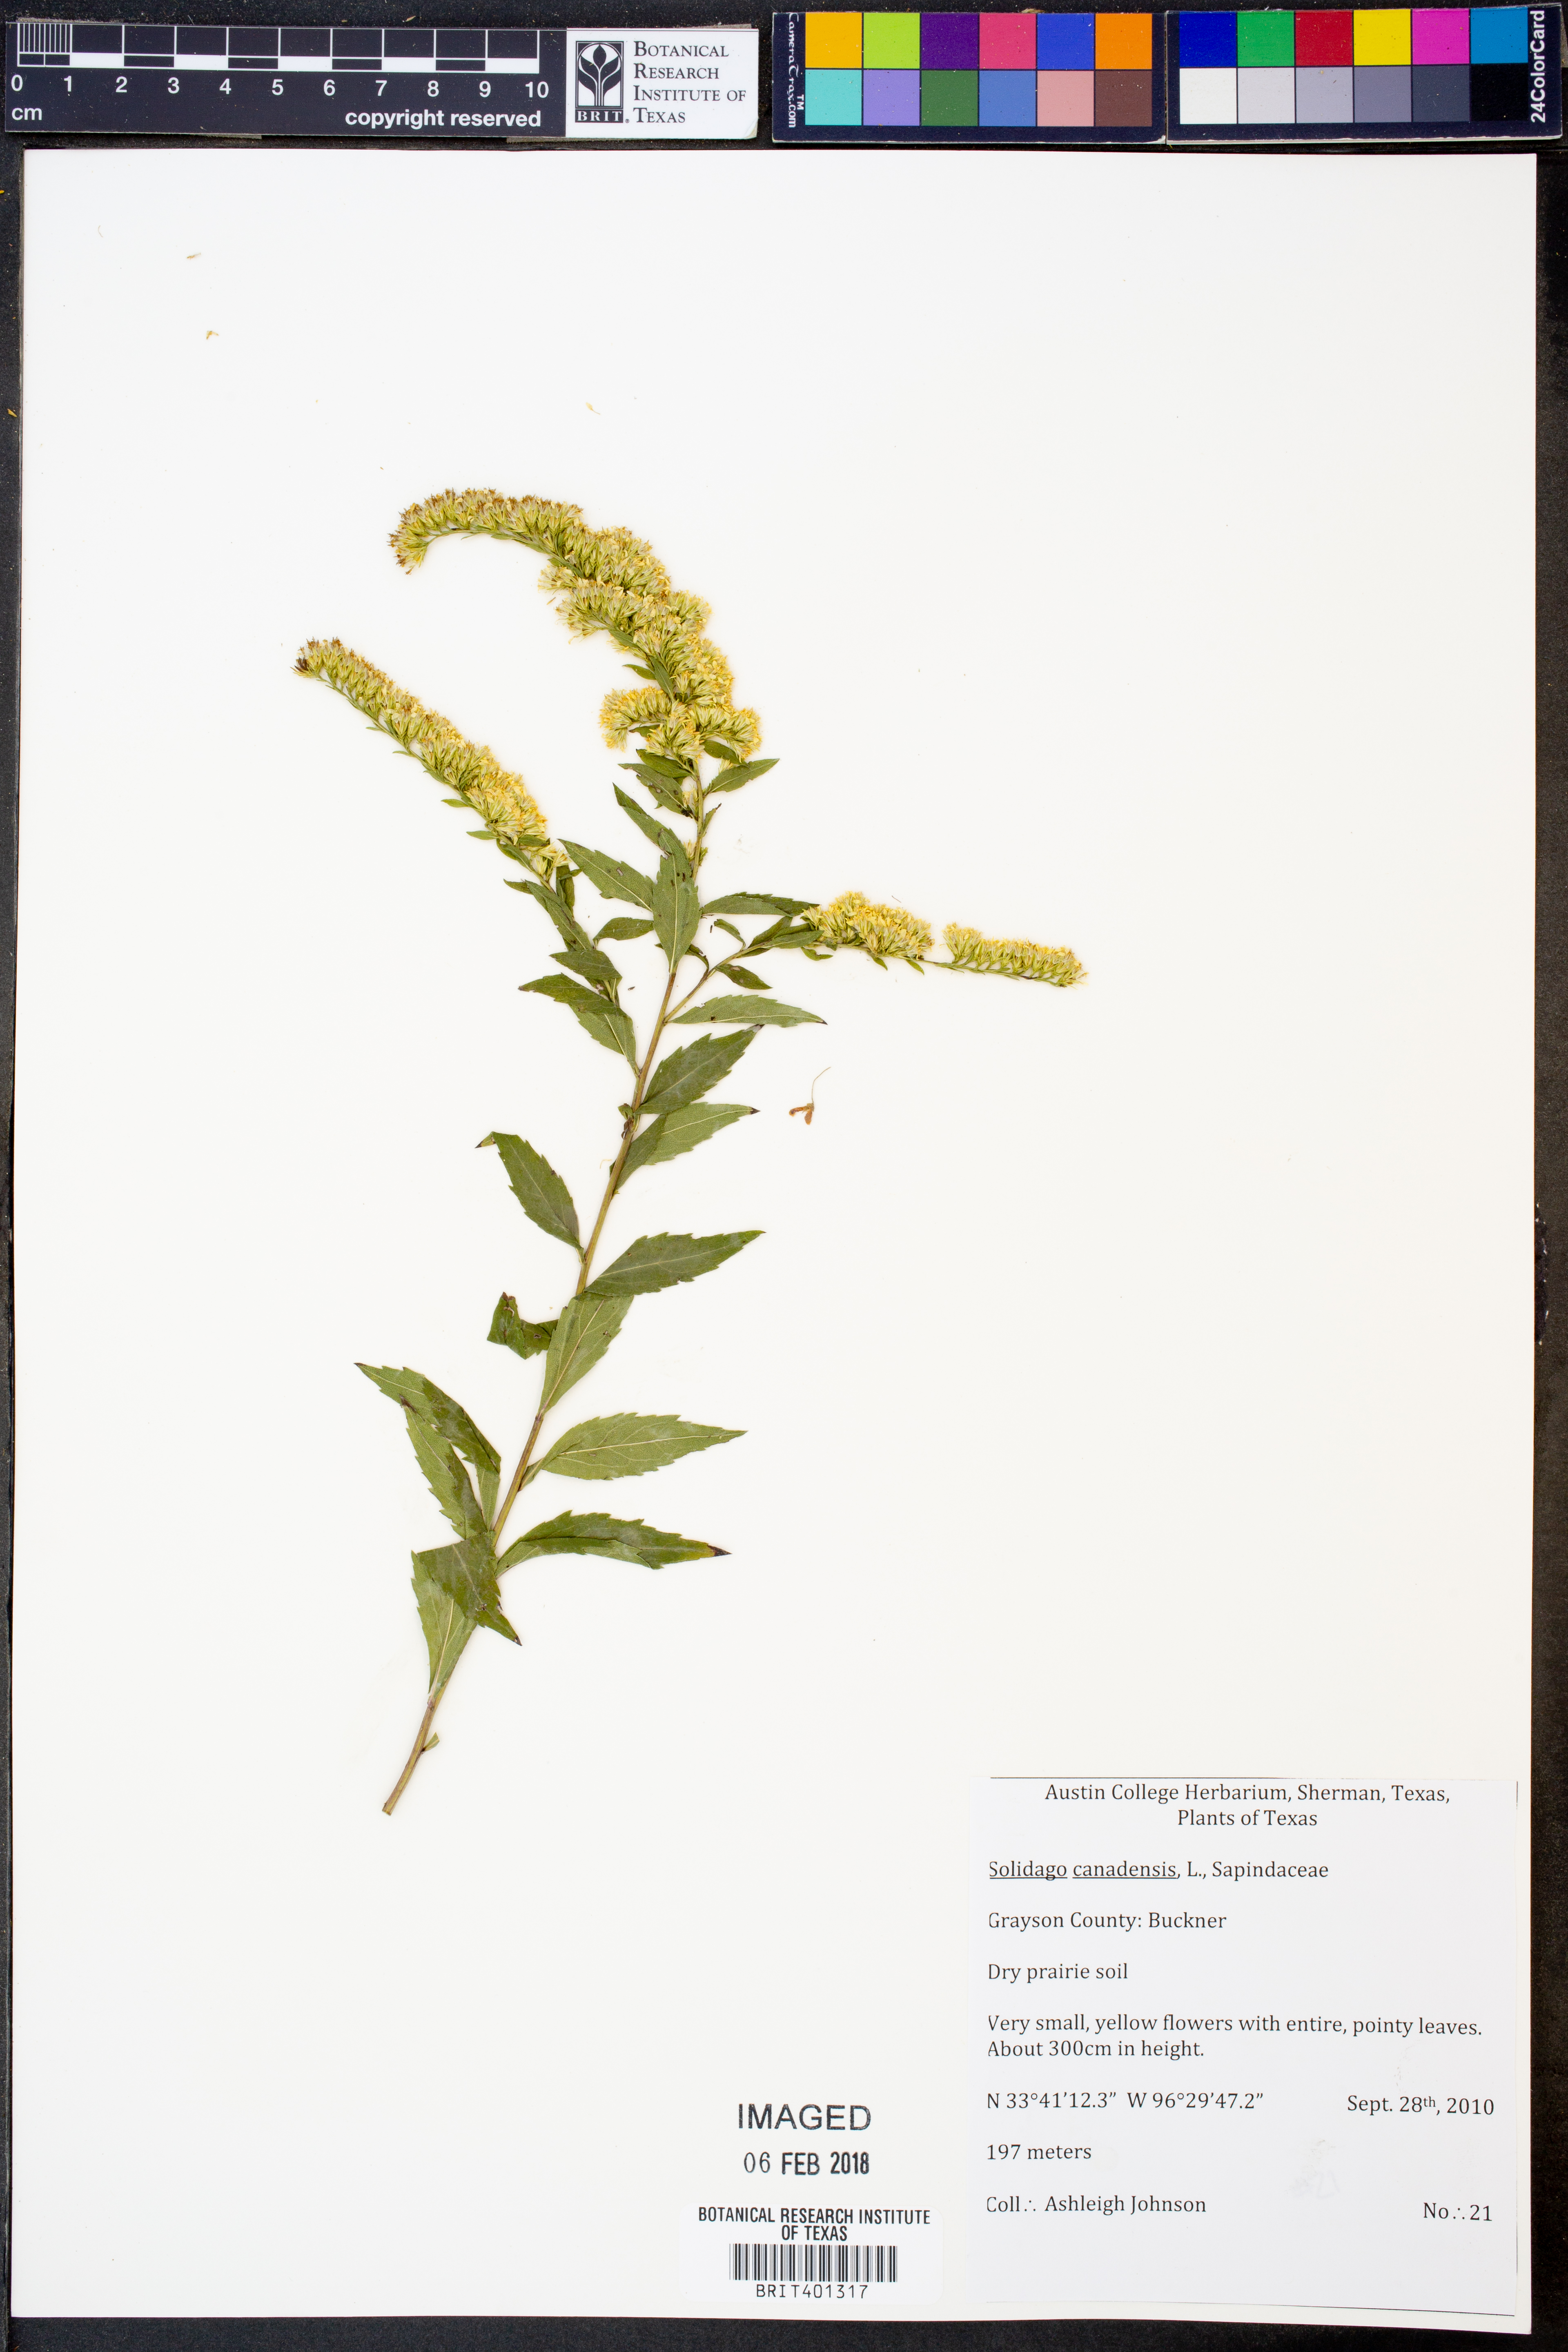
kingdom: Plantae
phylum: Tracheophyta
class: Magnoliopsida
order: Asterales
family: Asteraceae
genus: Solidago
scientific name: Solidago canadensis
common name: Canada goldenrod
